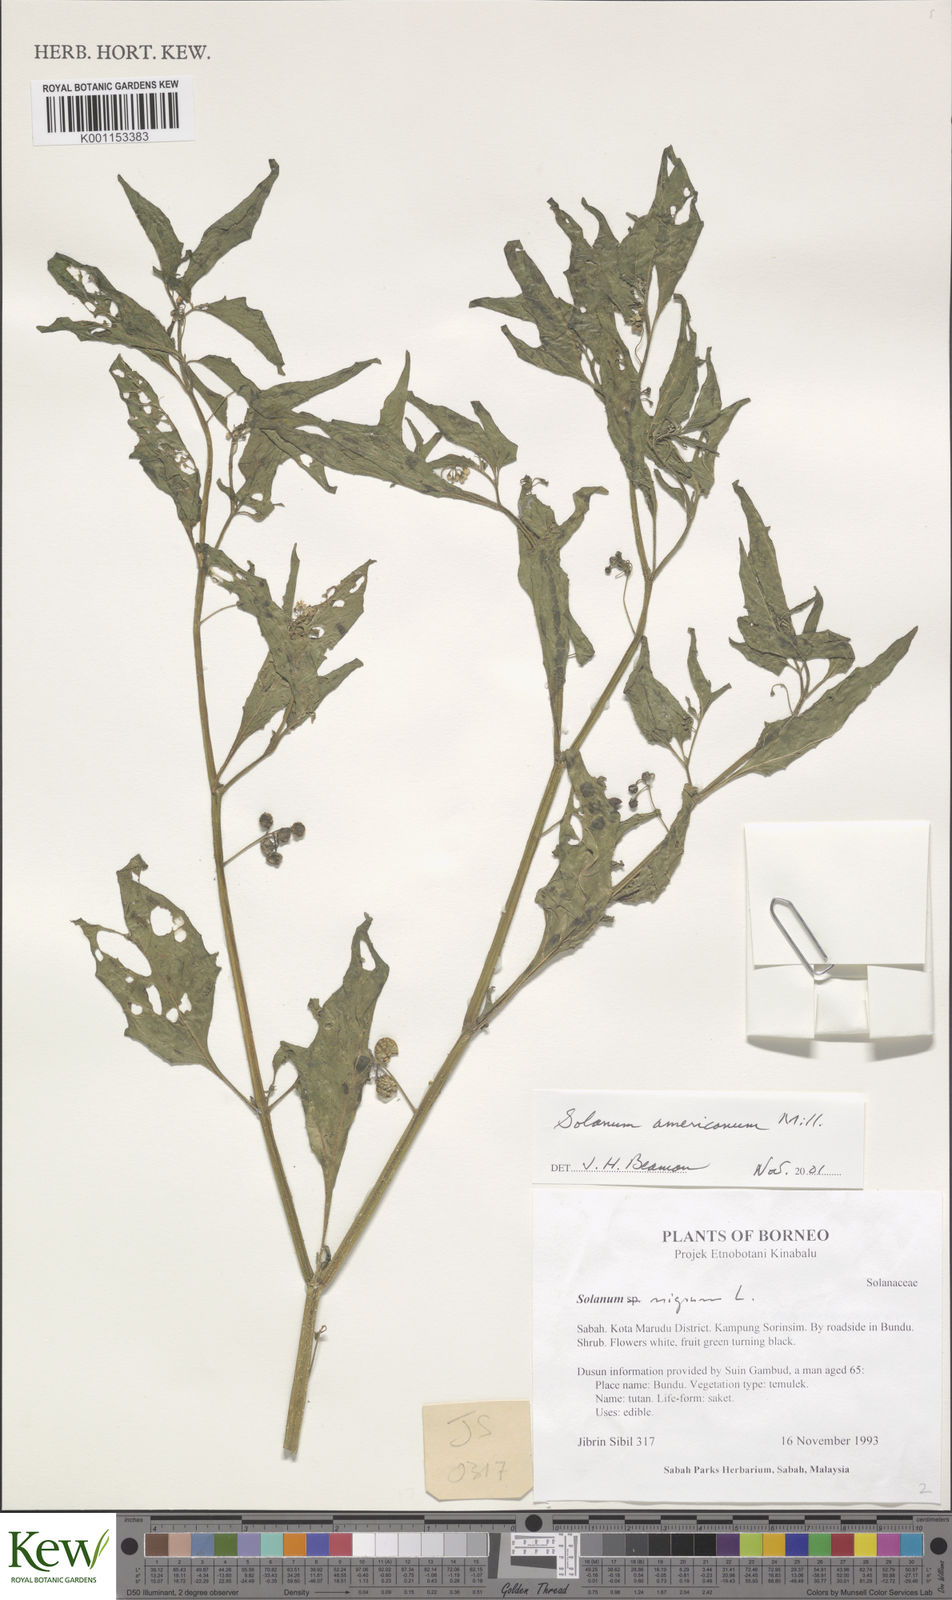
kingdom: Plantae
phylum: Tracheophyta
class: Magnoliopsida
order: Solanales
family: Solanaceae
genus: Solanum
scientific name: Solanum americanum
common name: American black nightshade
